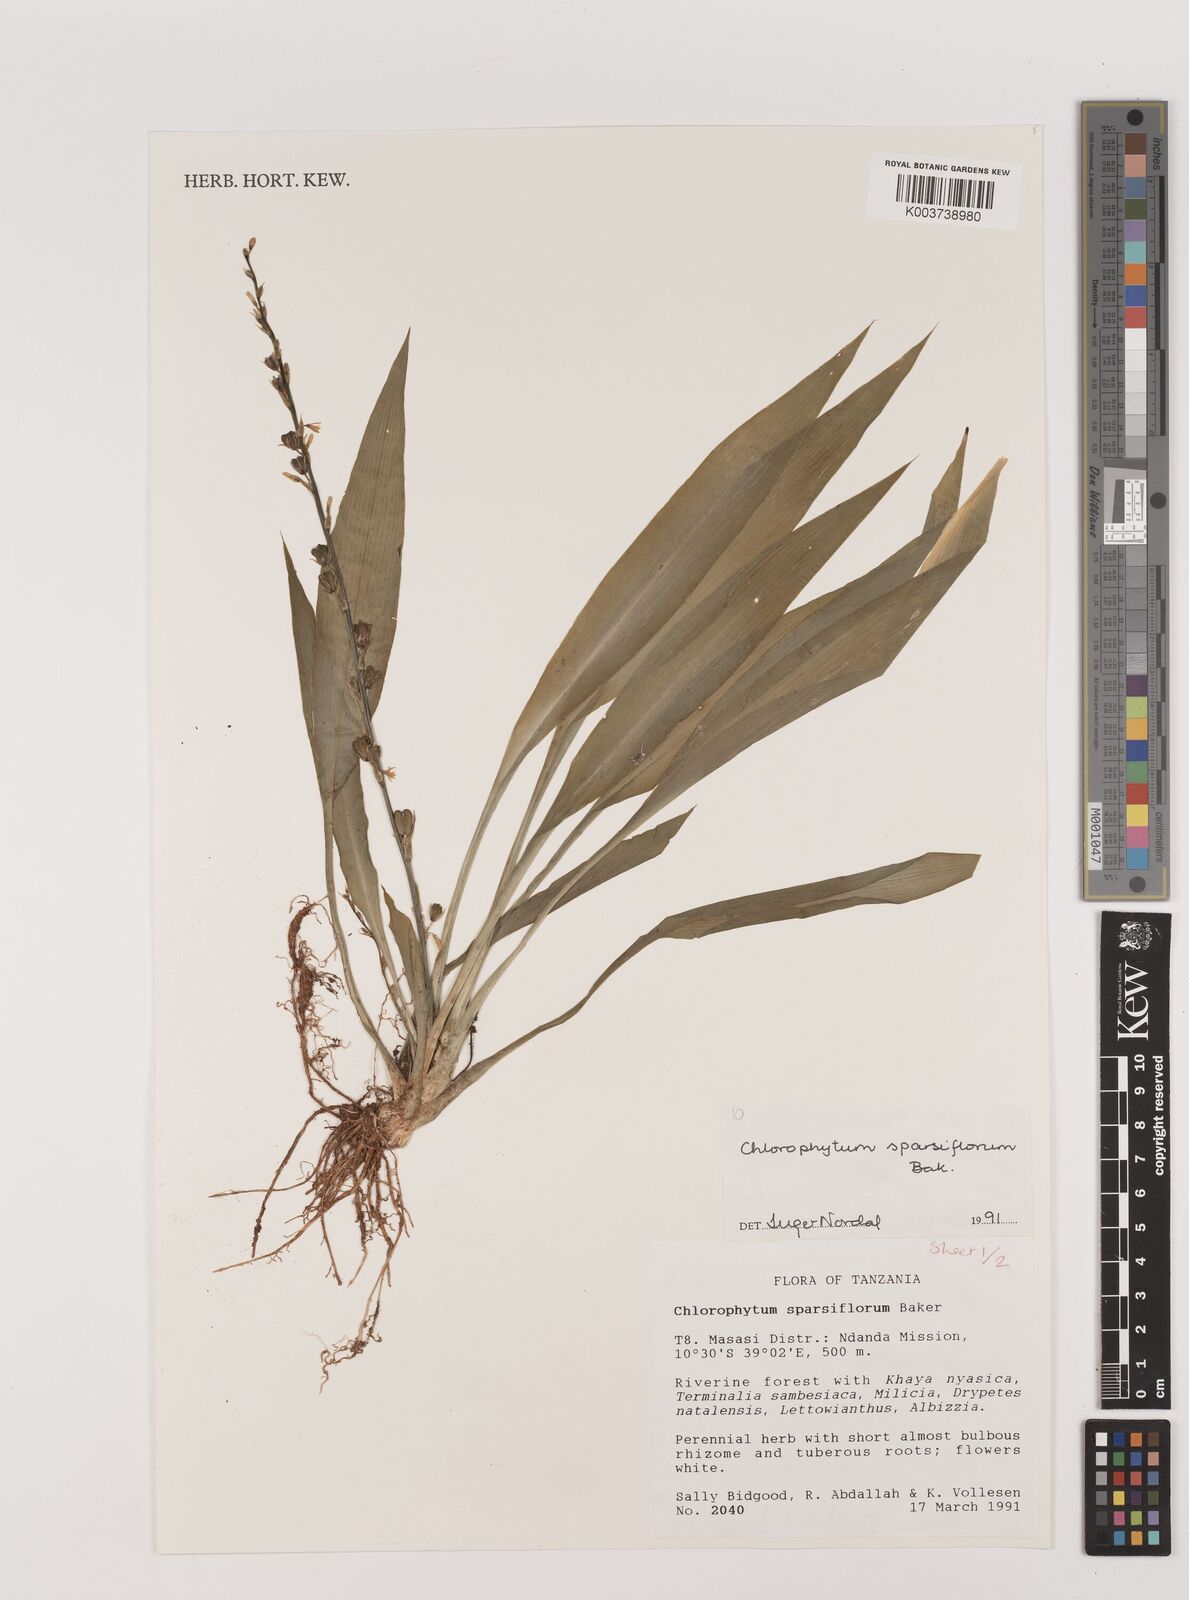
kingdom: Plantae
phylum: Tracheophyta
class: Liliopsida
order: Asparagales
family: Asparagaceae
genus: Chlorophytum
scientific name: Chlorophytum comosum
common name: Spider plant
